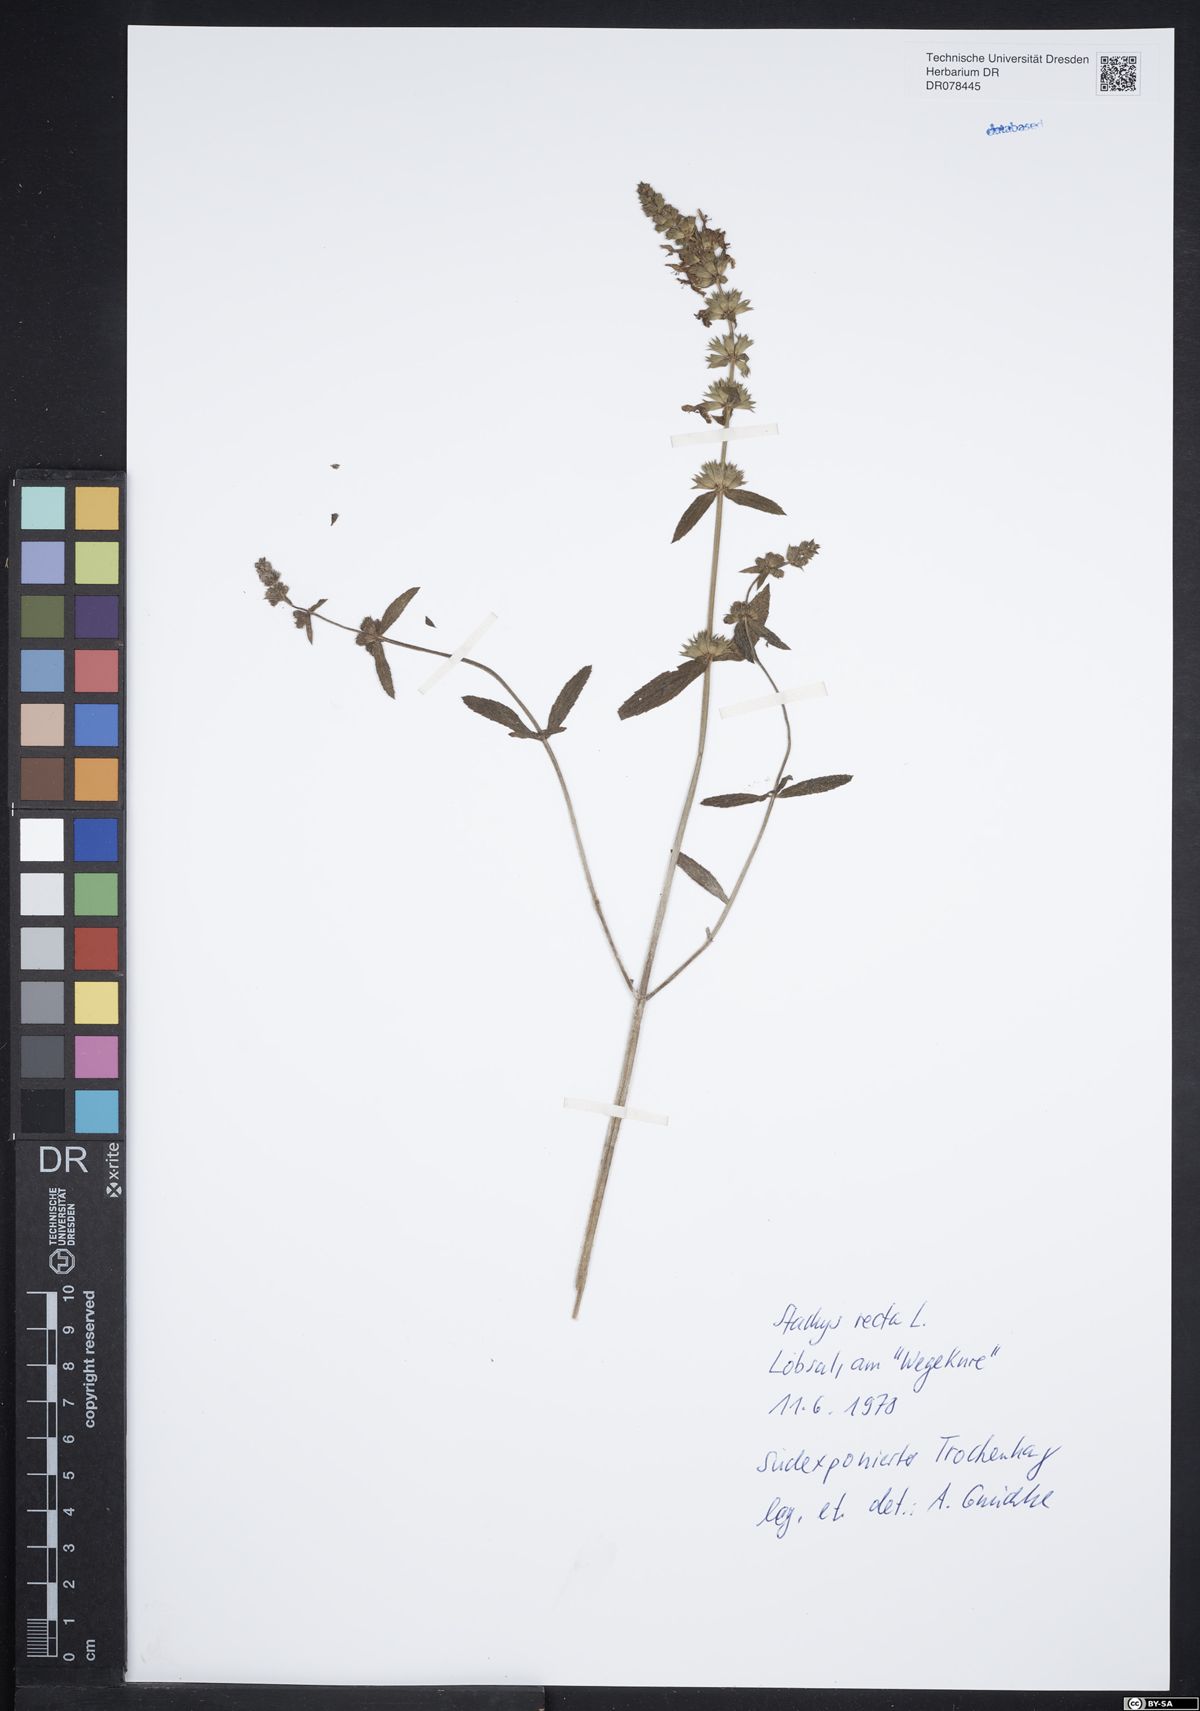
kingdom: Plantae
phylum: Tracheophyta
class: Magnoliopsida
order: Lamiales
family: Lamiaceae
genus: Stachys
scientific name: Stachys recta
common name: Perennial yellow-woundwort
